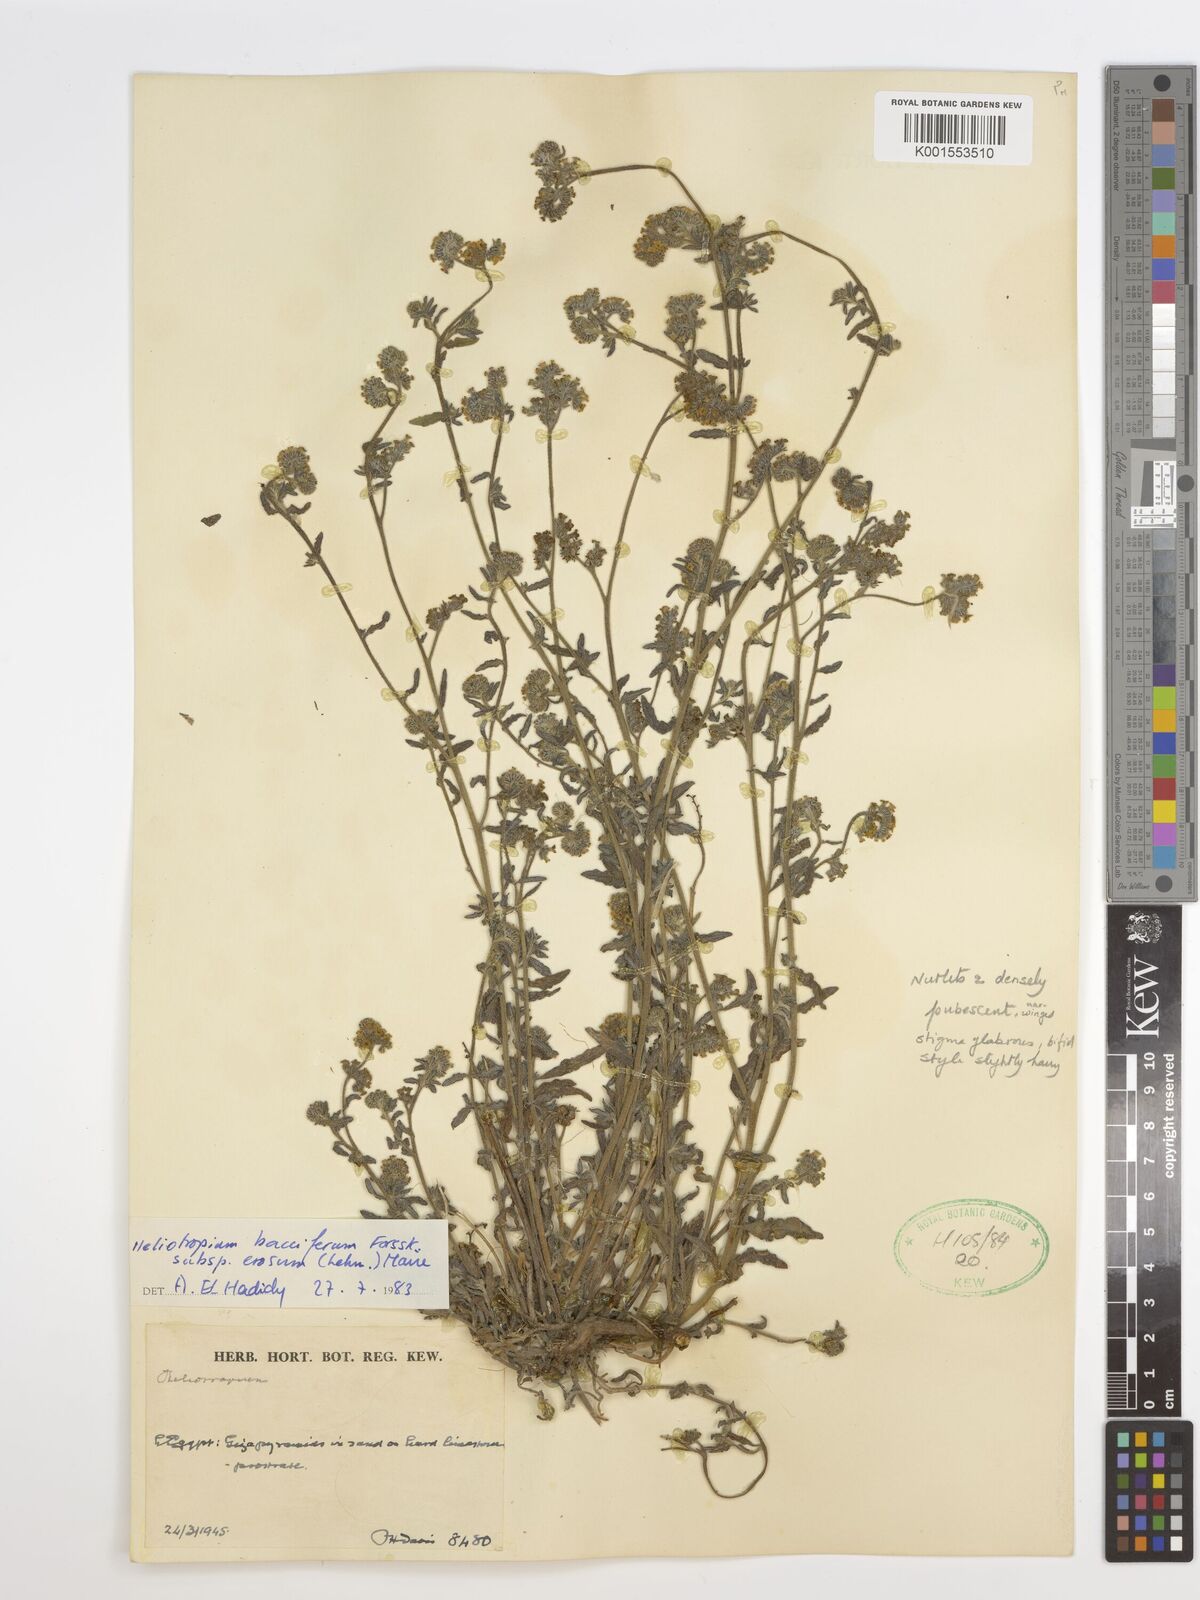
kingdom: Plantae
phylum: Tracheophyta
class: Magnoliopsida
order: Boraginales
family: Heliotropiaceae
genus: Heliotropium
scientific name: Heliotropium crispum
